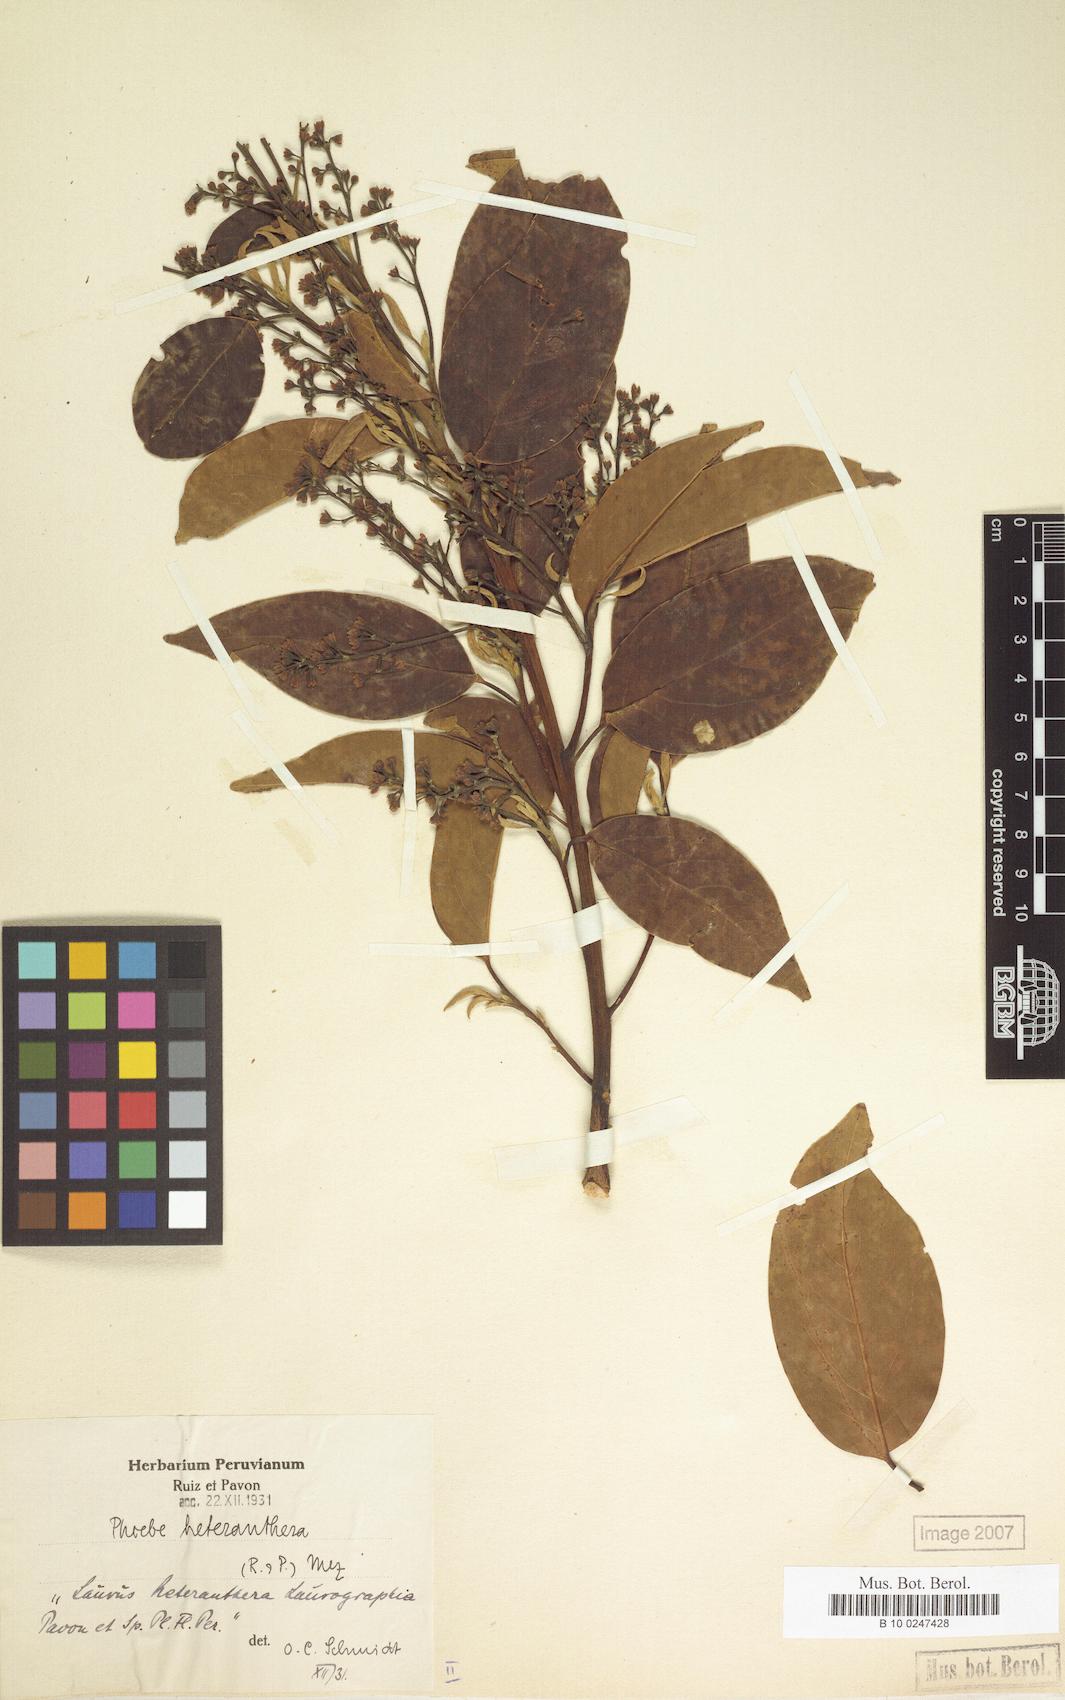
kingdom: Plantae
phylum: Tracheophyta
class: Magnoliopsida
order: Laurales
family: Lauraceae
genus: Aiouea
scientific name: Aiouea heteranthera
